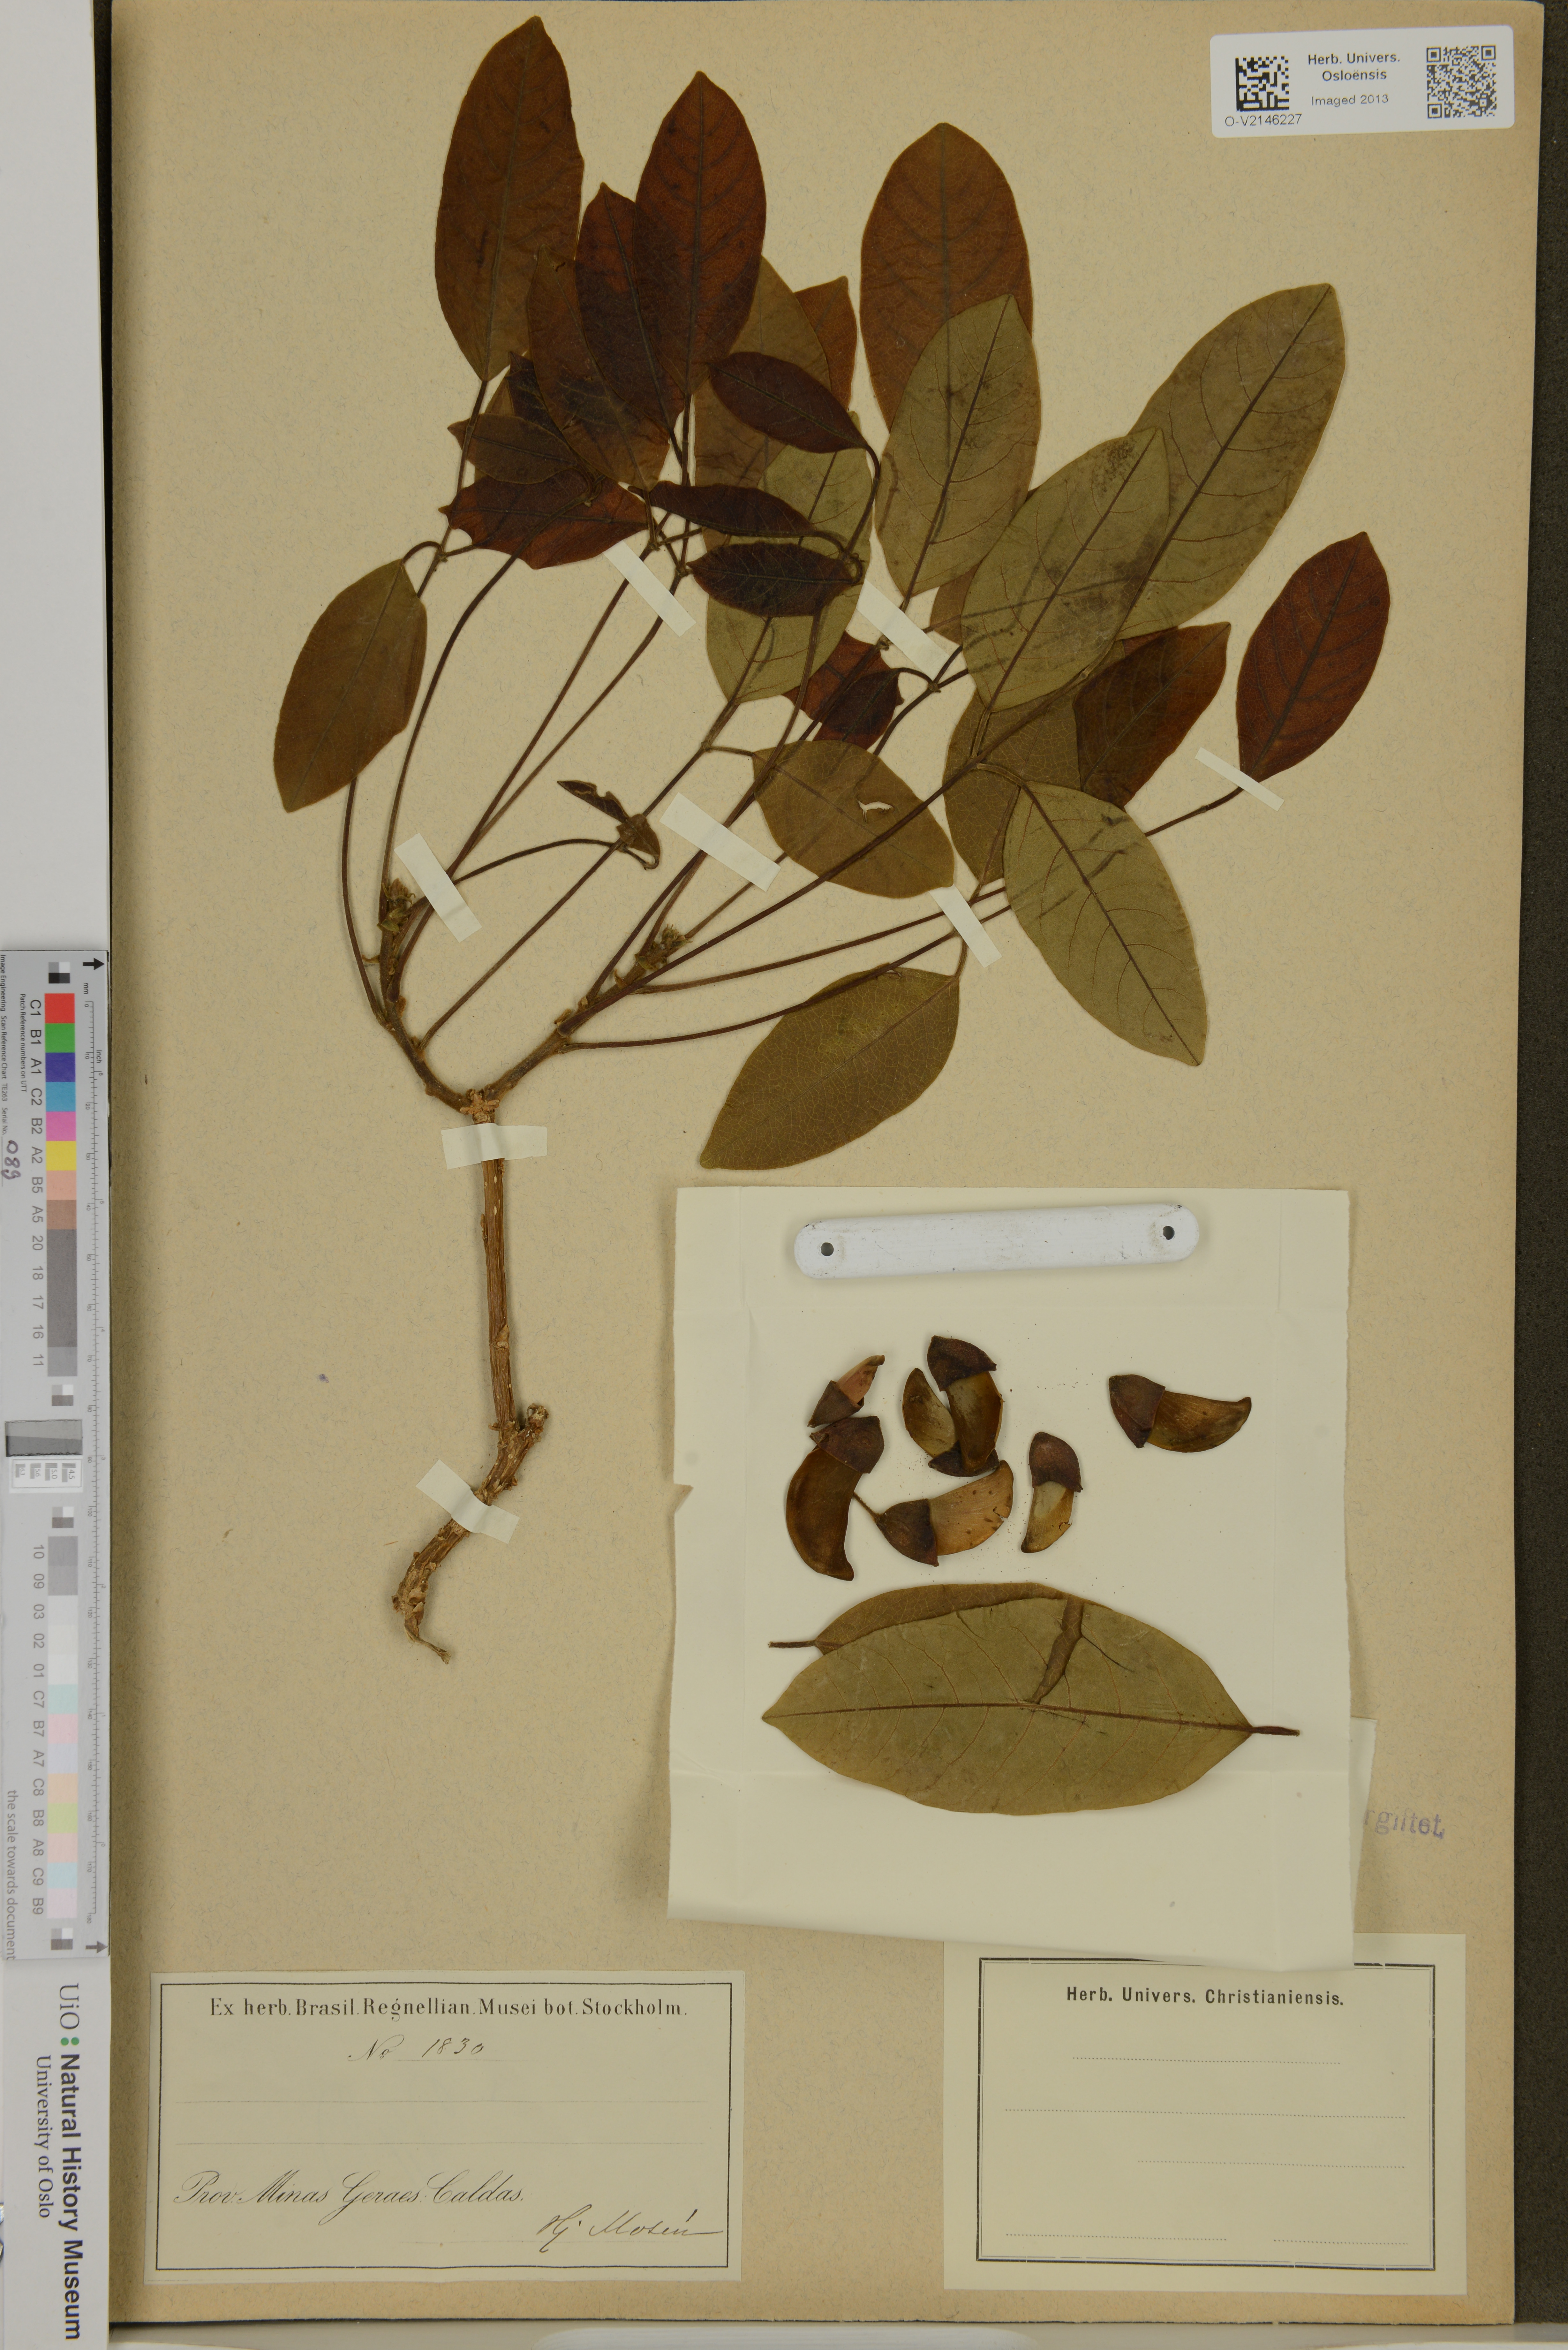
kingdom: Plantae
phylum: Tracheophyta
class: Magnoliopsida
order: Fabales
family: Fabaceae
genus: Erythrina
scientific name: Erythrina
